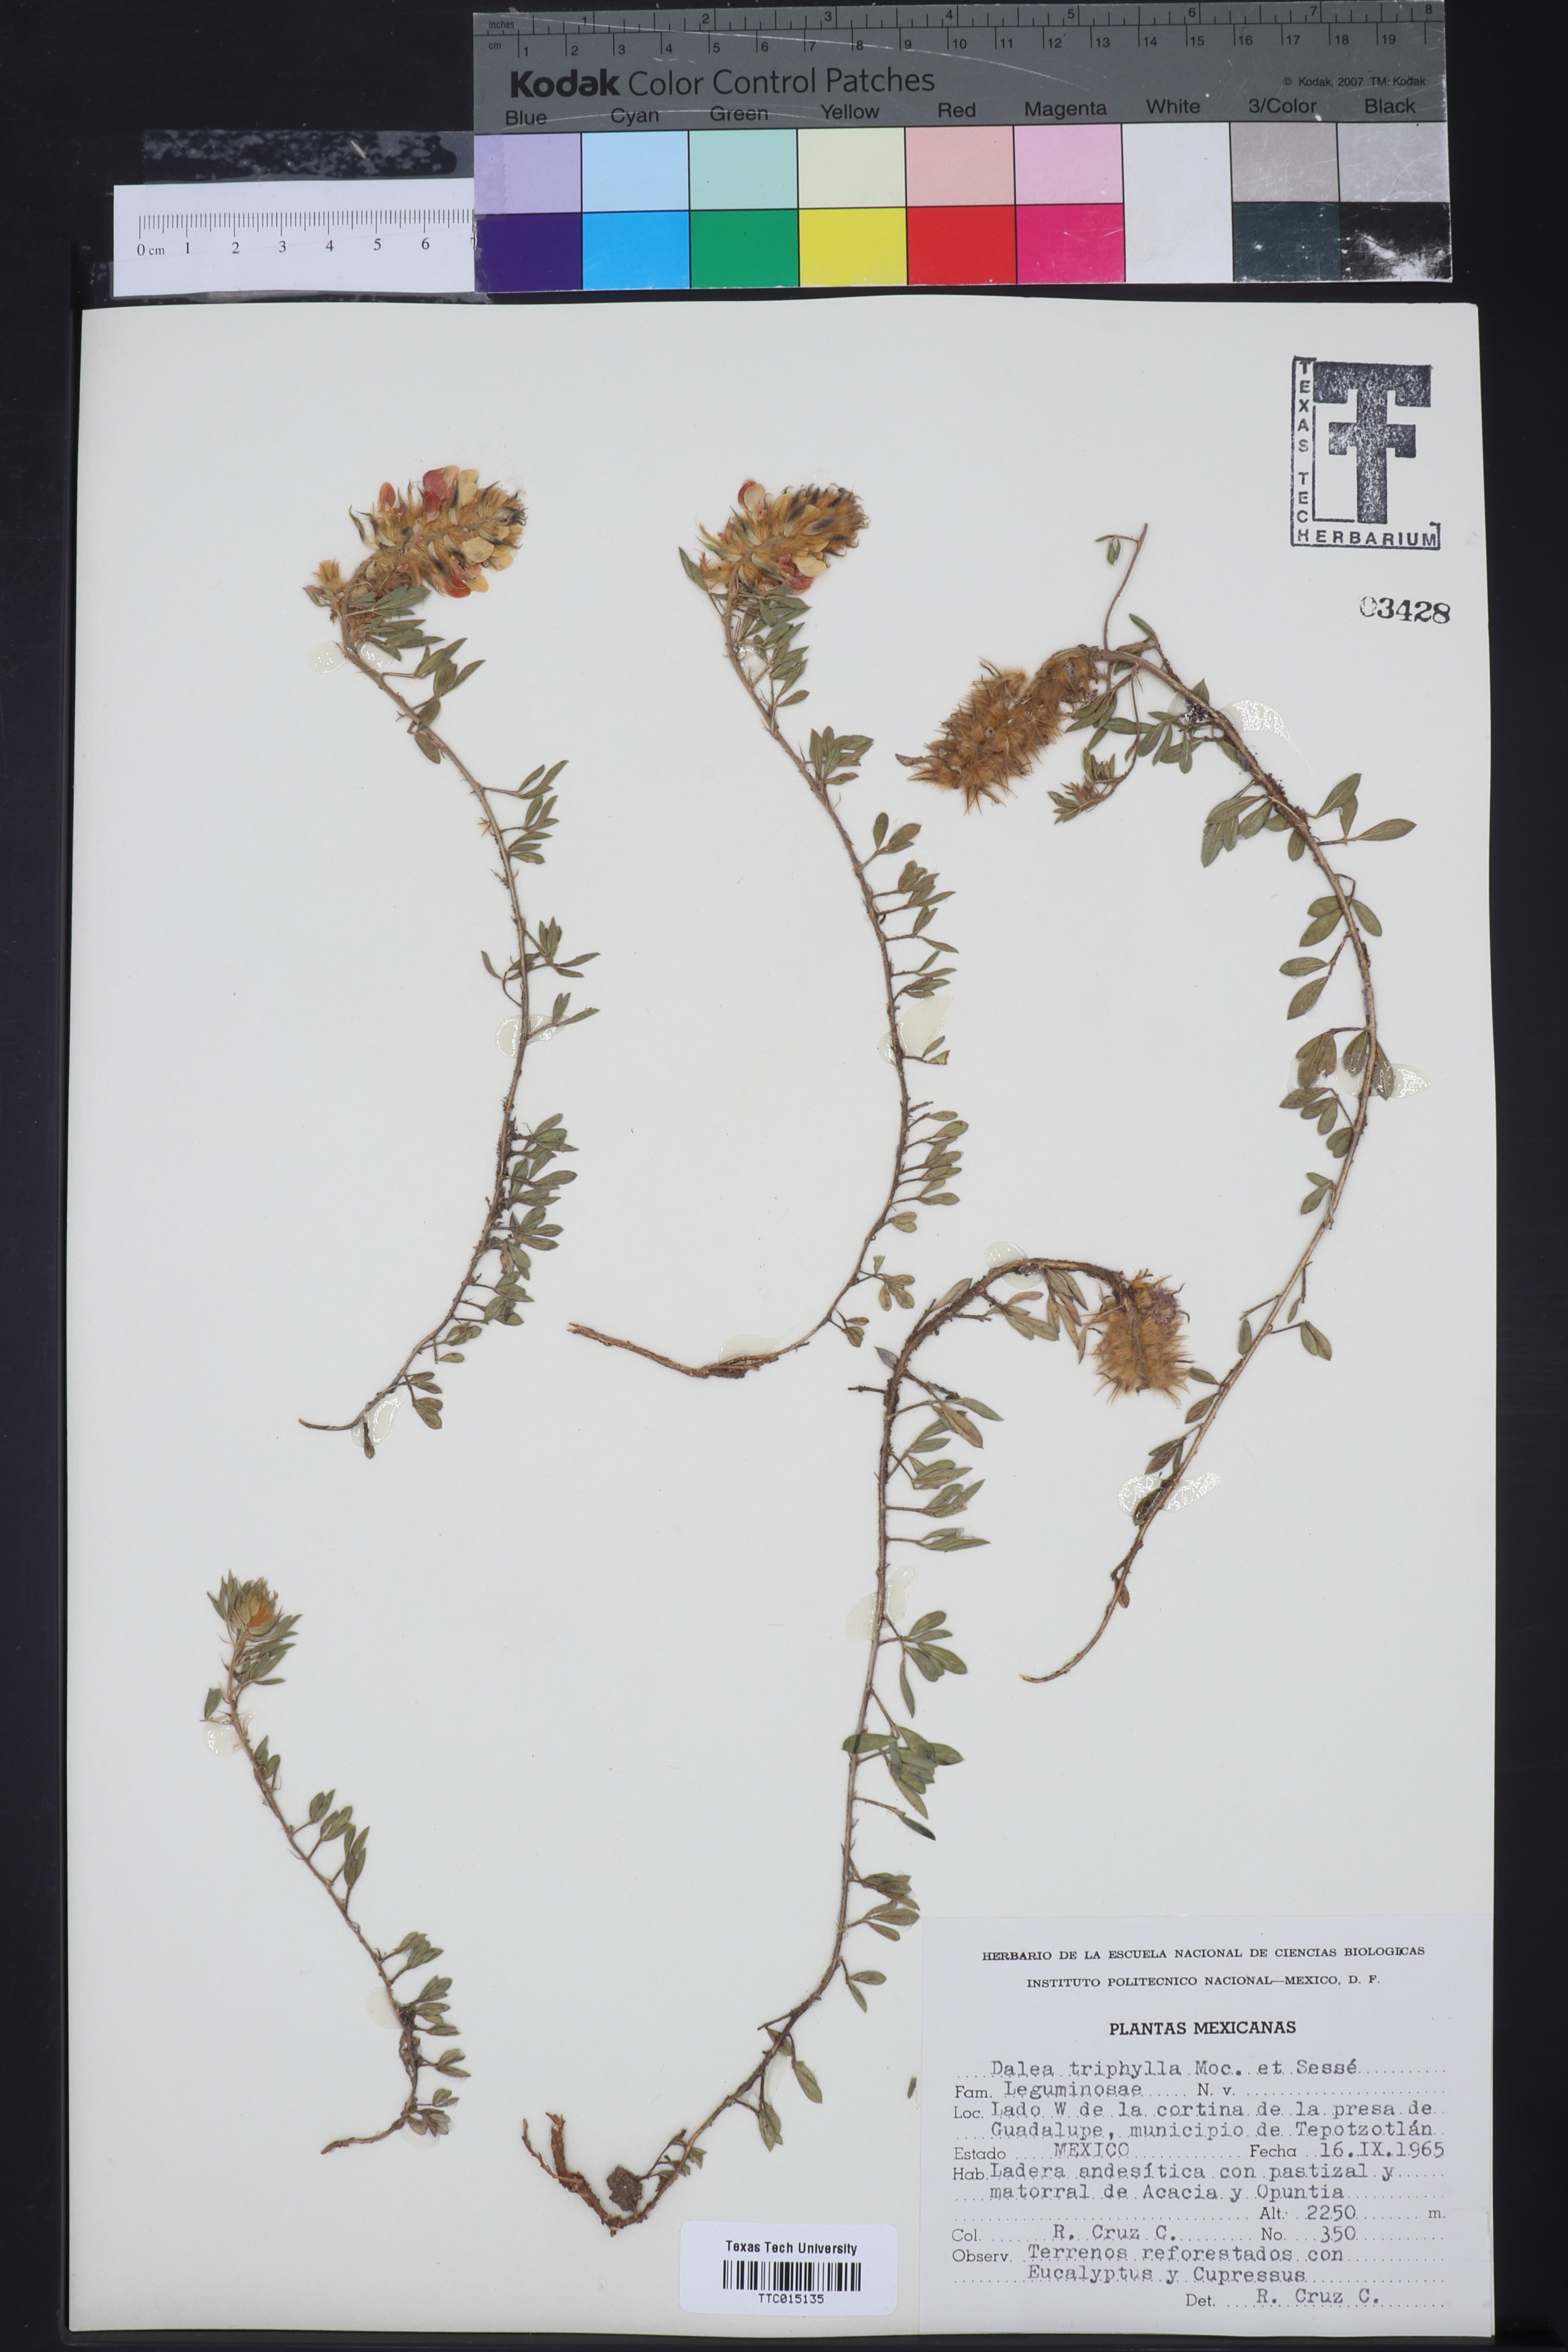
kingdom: Plantae
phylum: Tracheophyta
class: Magnoliopsida
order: Fabales
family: Fabaceae
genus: Dalea
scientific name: Dalea prostrata
